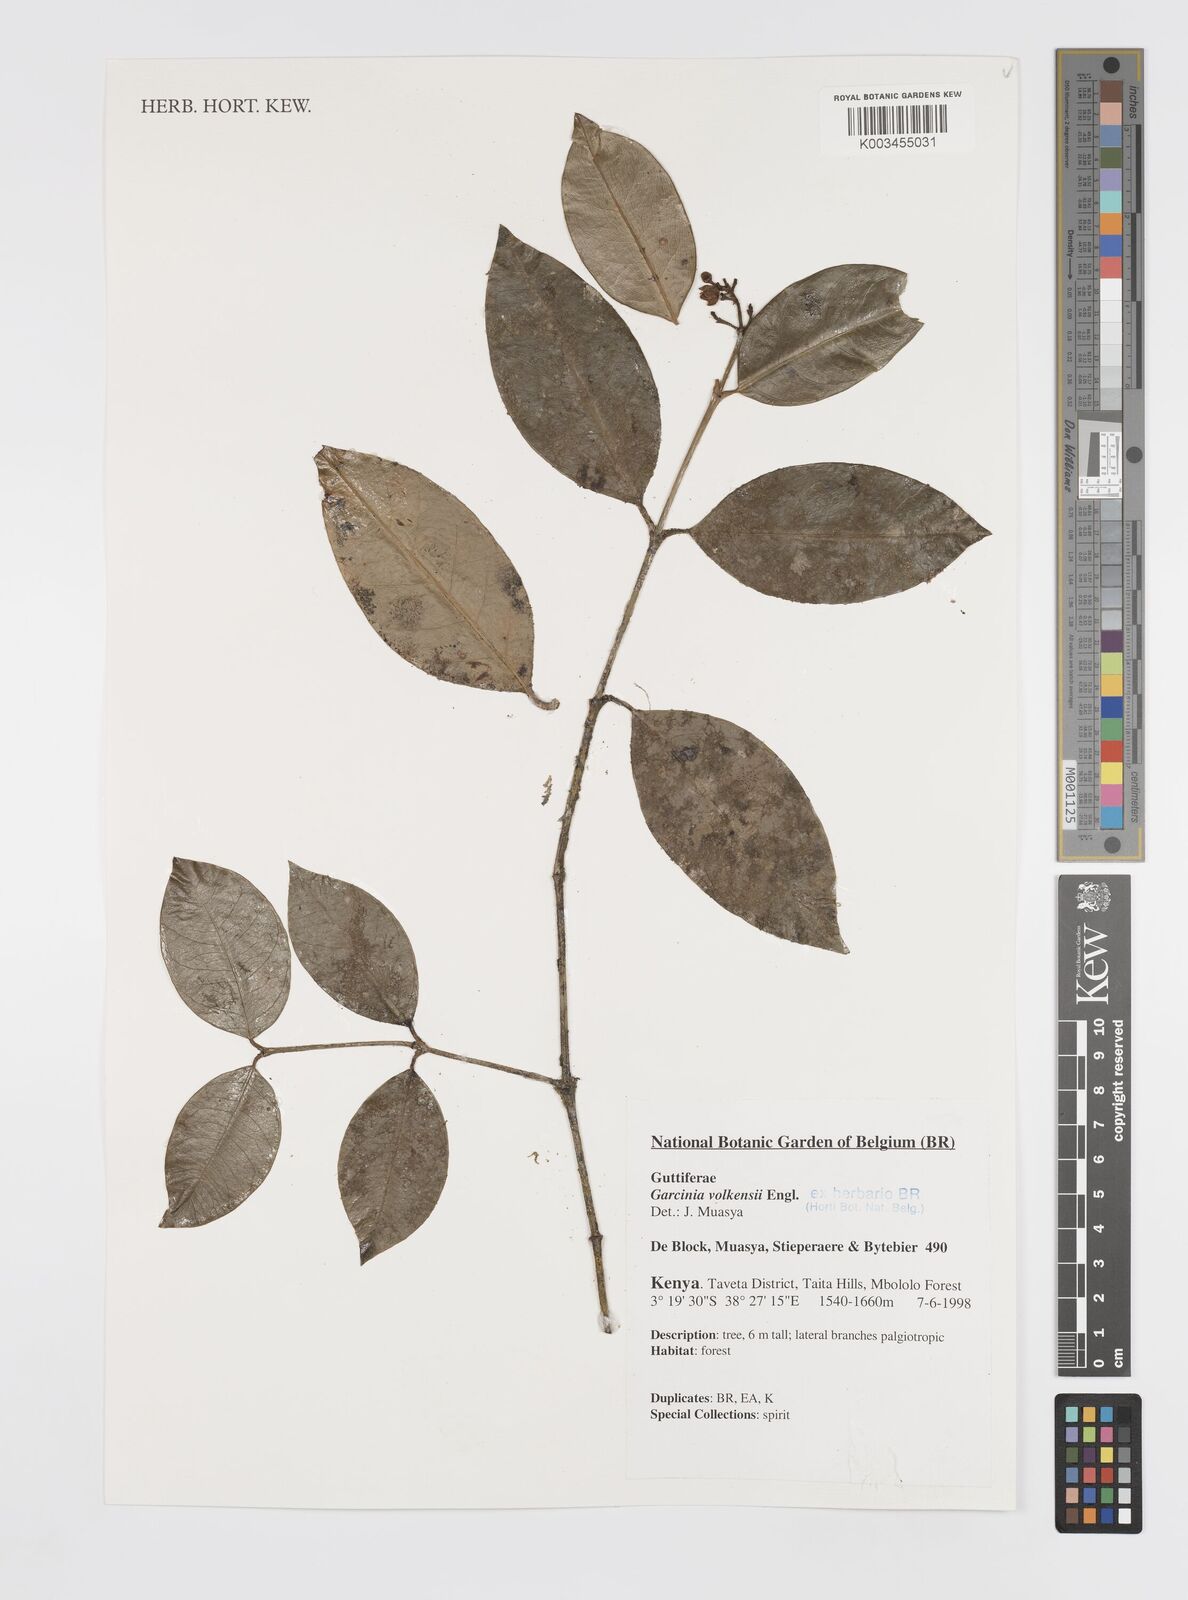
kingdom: Plantae
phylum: Tracheophyta
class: Magnoliopsida
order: Malpighiales
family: Clusiaceae
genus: Garcinia
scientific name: Garcinia volkensii
